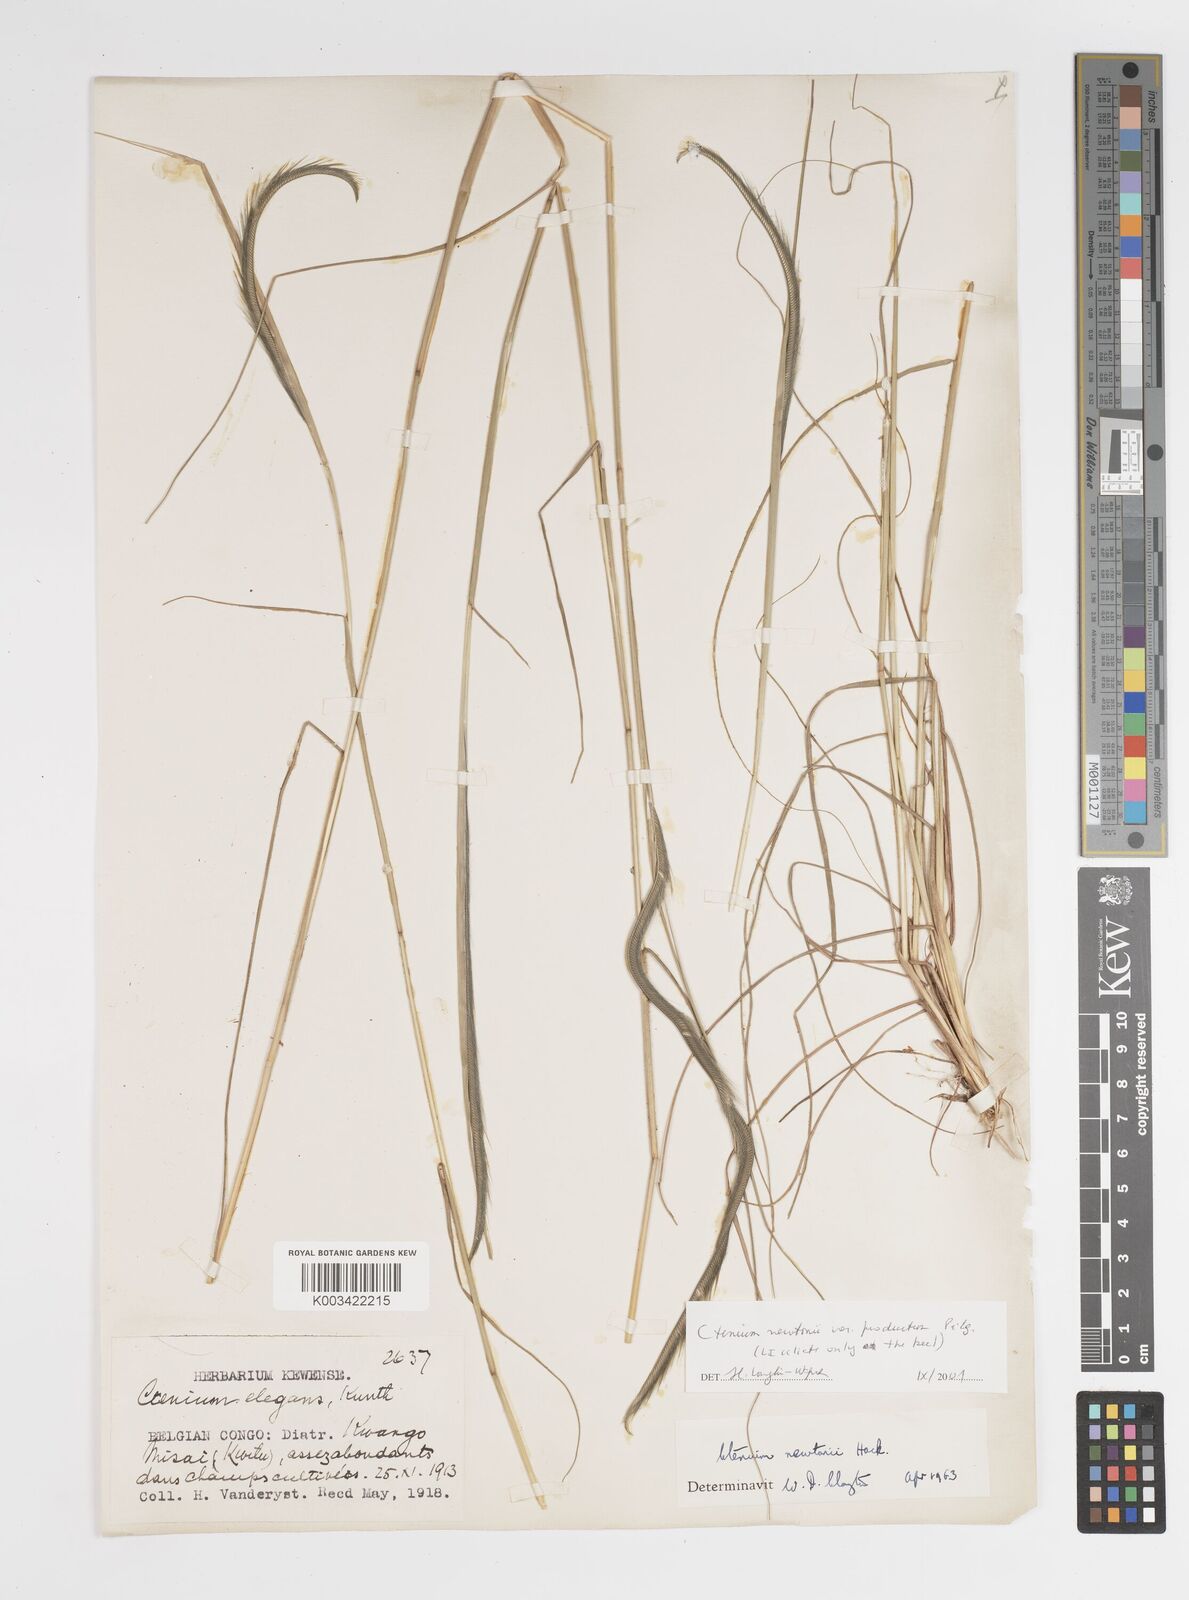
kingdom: Plantae
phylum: Tracheophyta
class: Liliopsida
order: Poales
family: Poaceae
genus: Ctenium
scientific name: Ctenium newtonii
